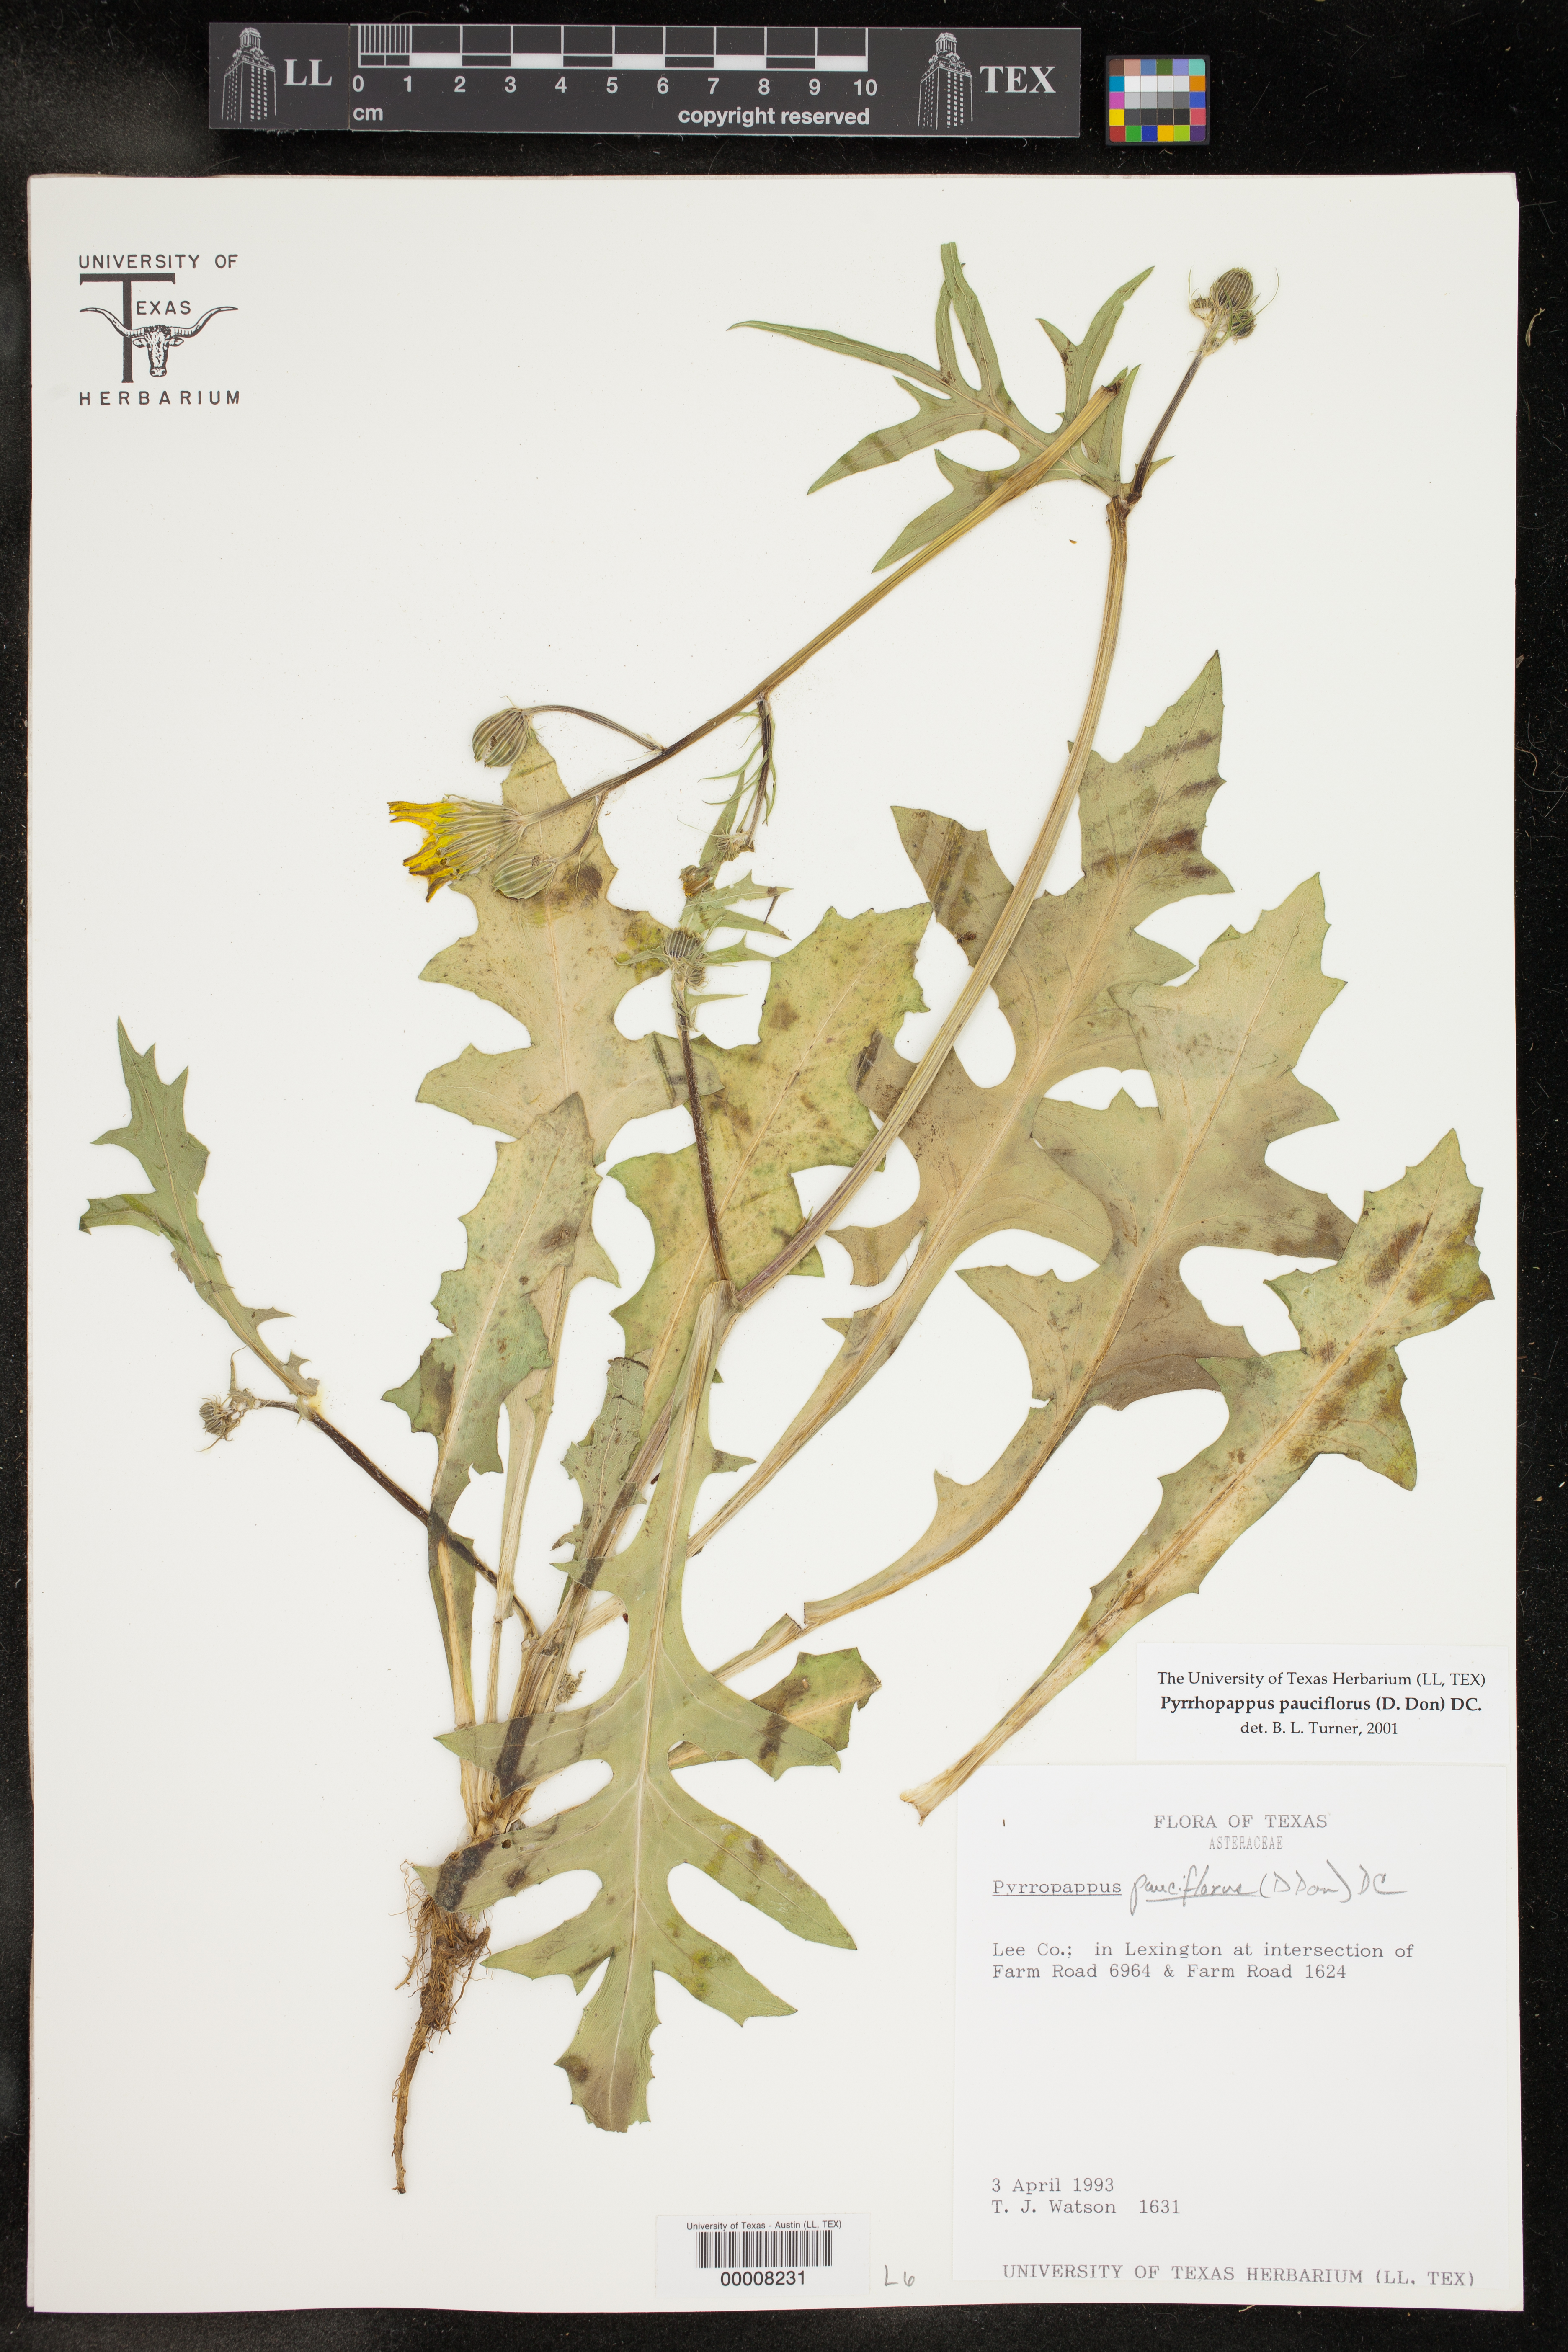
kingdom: Plantae
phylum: Tracheophyta
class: Magnoliopsida
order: Asterales
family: Asteraceae
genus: Pyrrhopappus
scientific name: Pyrrhopappus pauciflorus
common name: Texas false dandelion
